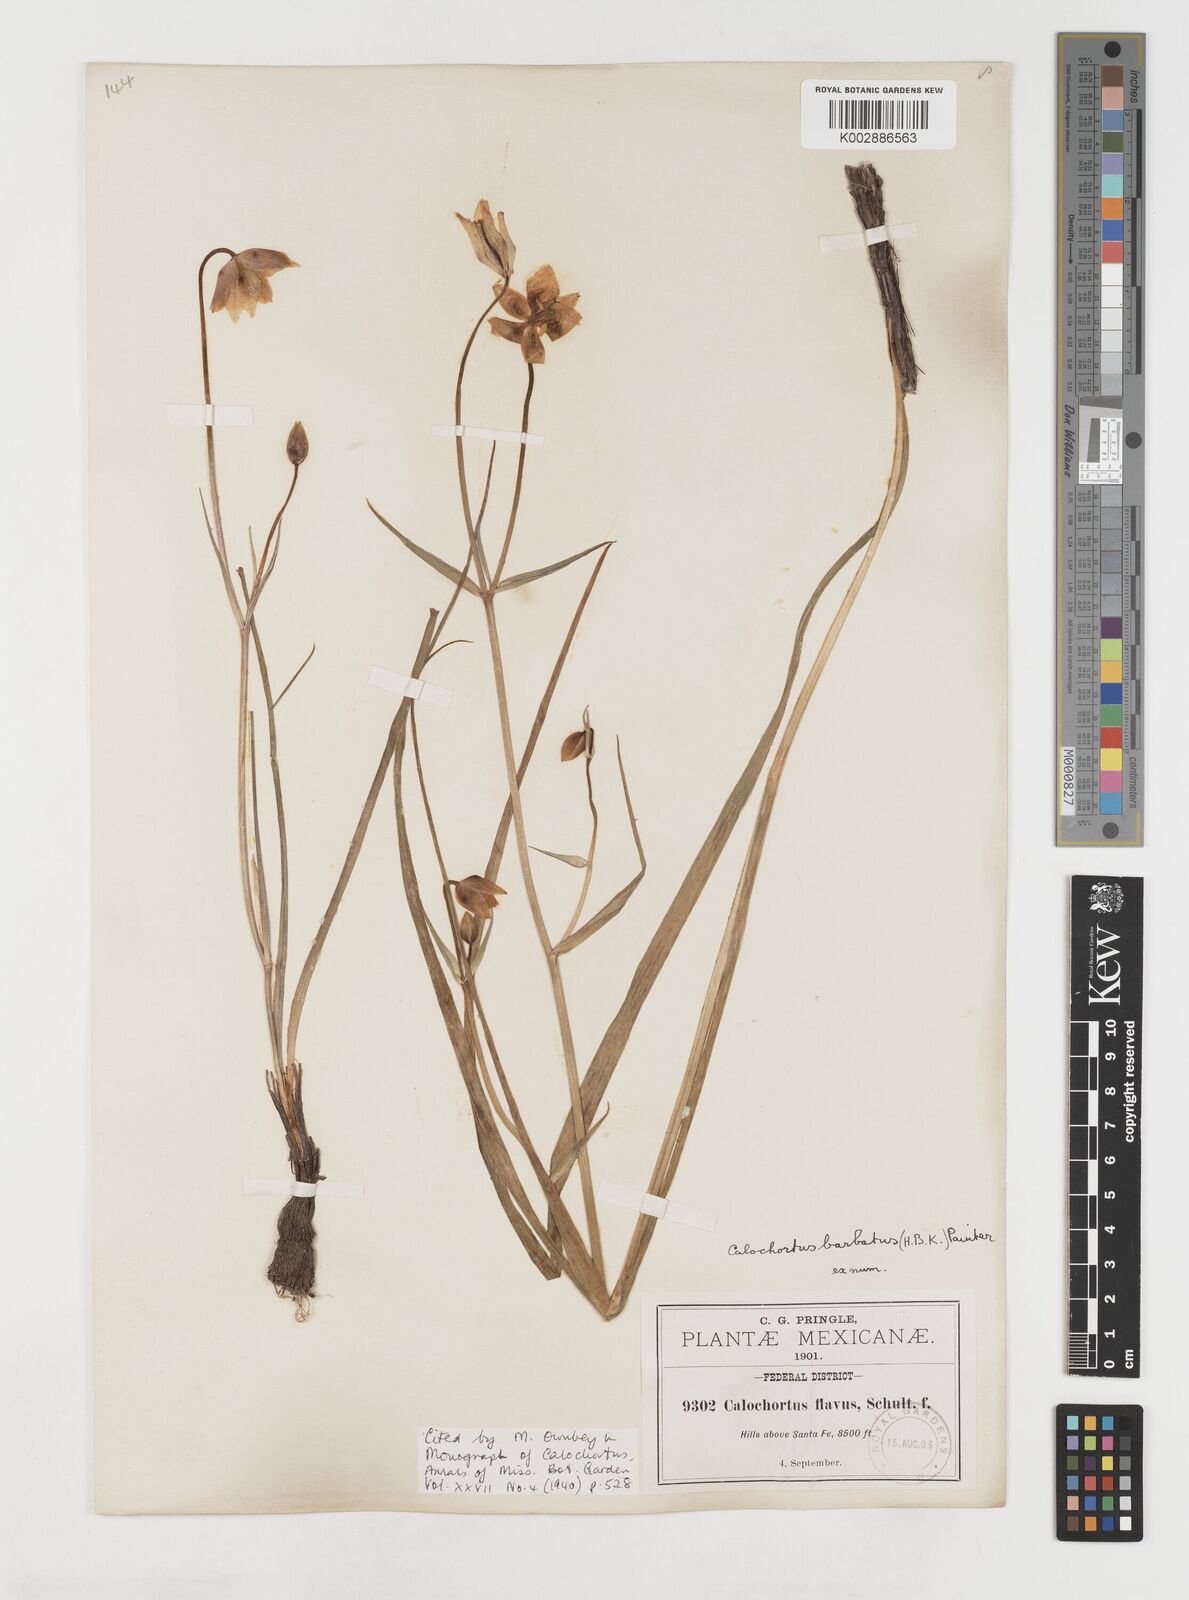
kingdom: Plantae
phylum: Tracheophyta
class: Liliopsida
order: Liliales
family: Liliaceae
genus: Calochortus
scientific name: Calochortus barbatus
